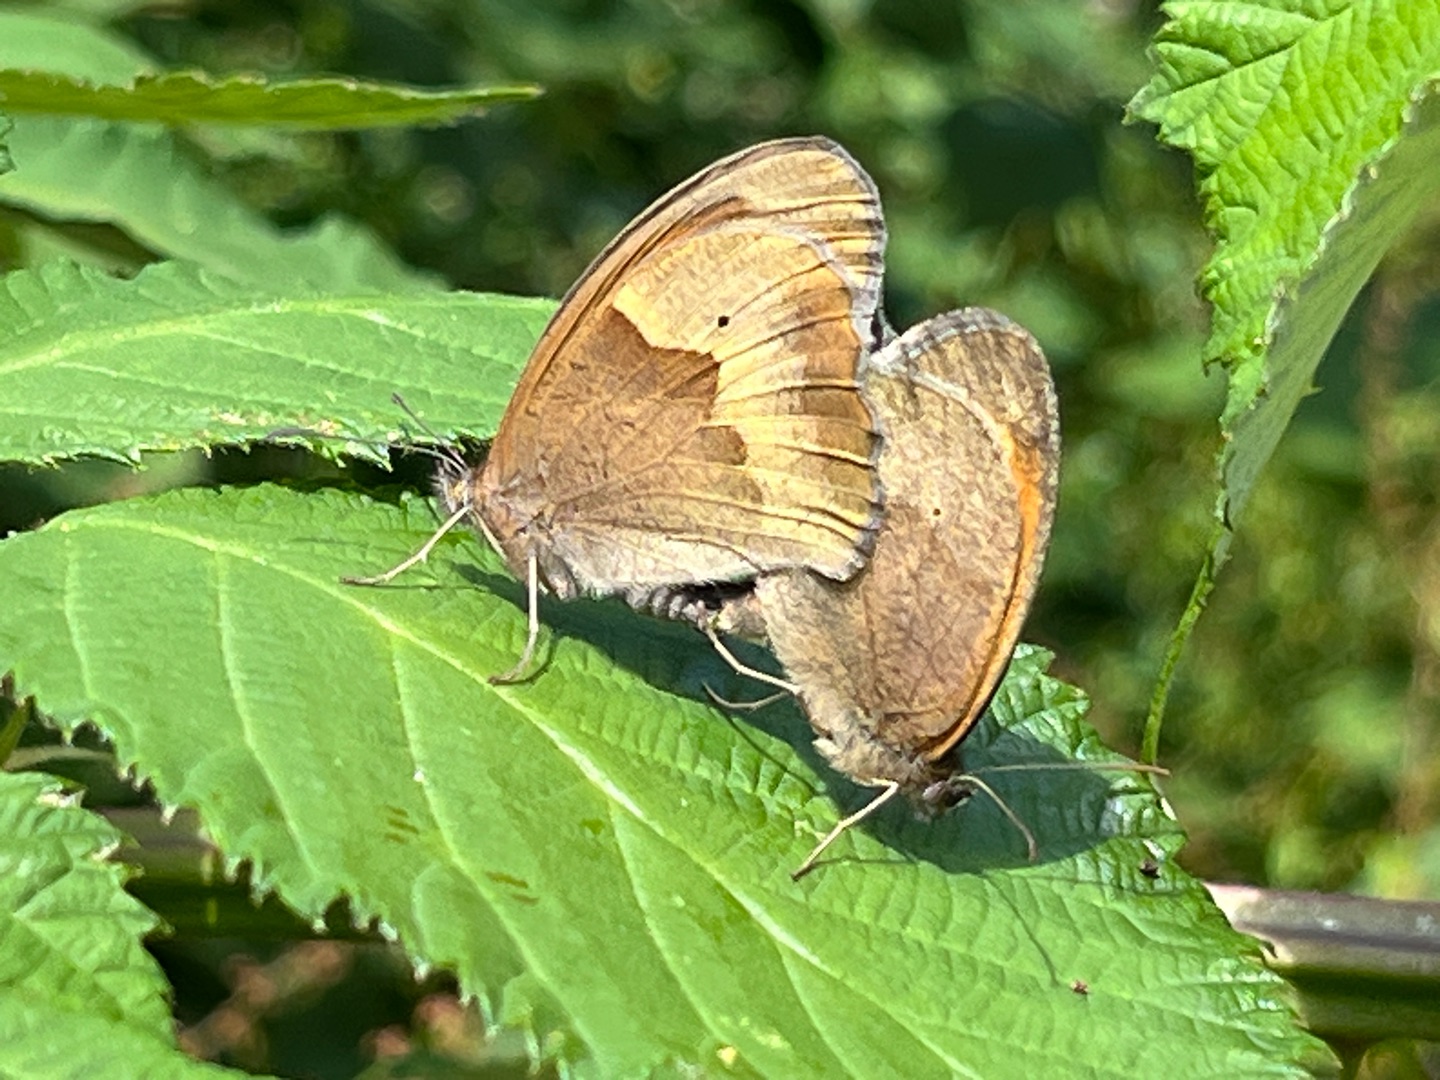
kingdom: Animalia
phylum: Arthropoda
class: Insecta
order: Lepidoptera
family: Nymphalidae
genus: Maniola
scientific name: Maniola jurtina
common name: Græsrandøje
